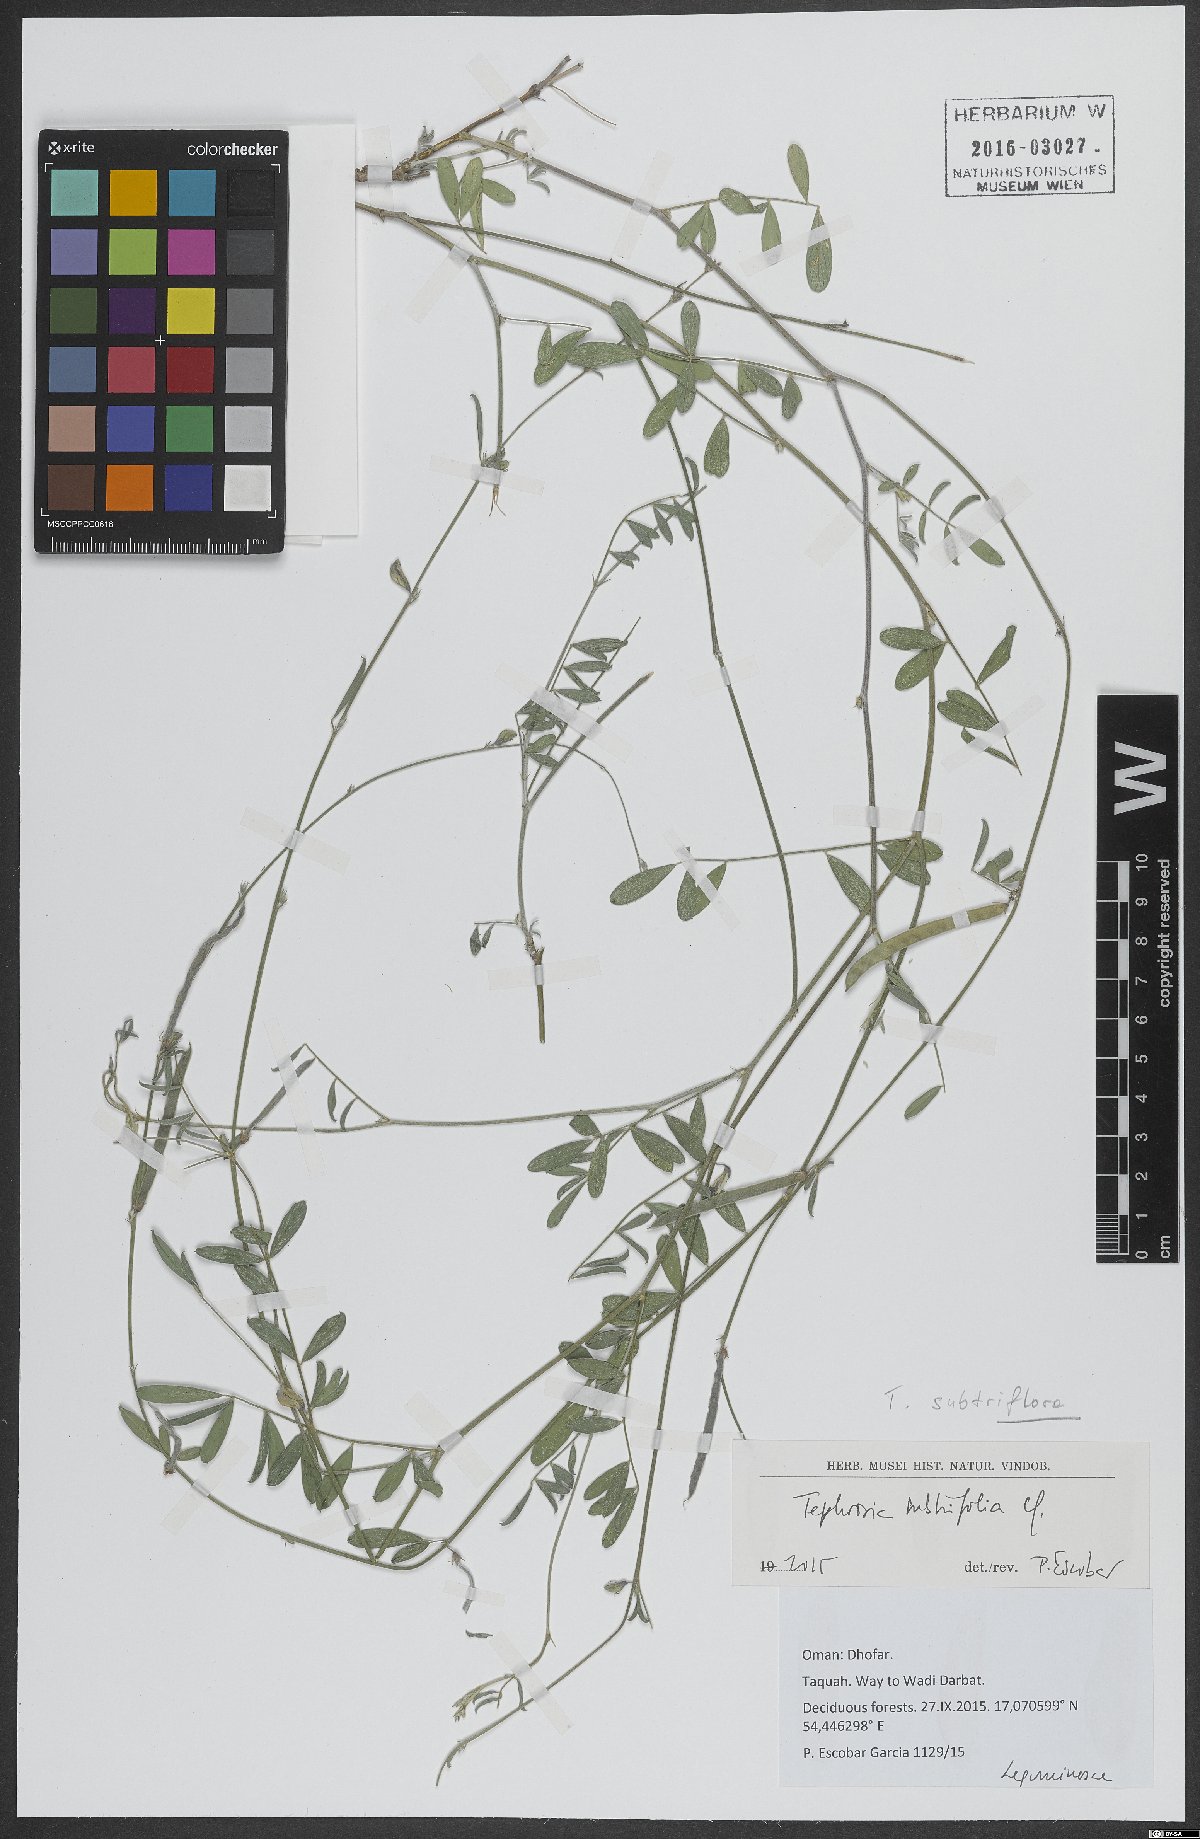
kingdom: Plantae
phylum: Tracheophyta
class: Magnoliopsida
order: Fabales
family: Fabaceae
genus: Tephrosia
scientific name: Tephrosia subtriflora
